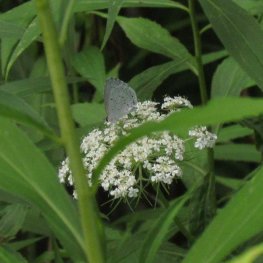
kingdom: Animalia
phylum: Arthropoda
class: Insecta
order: Lepidoptera
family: Lycaenidae
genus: Cyaniris
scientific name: Cyaniris neglecta
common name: Summer Azure
